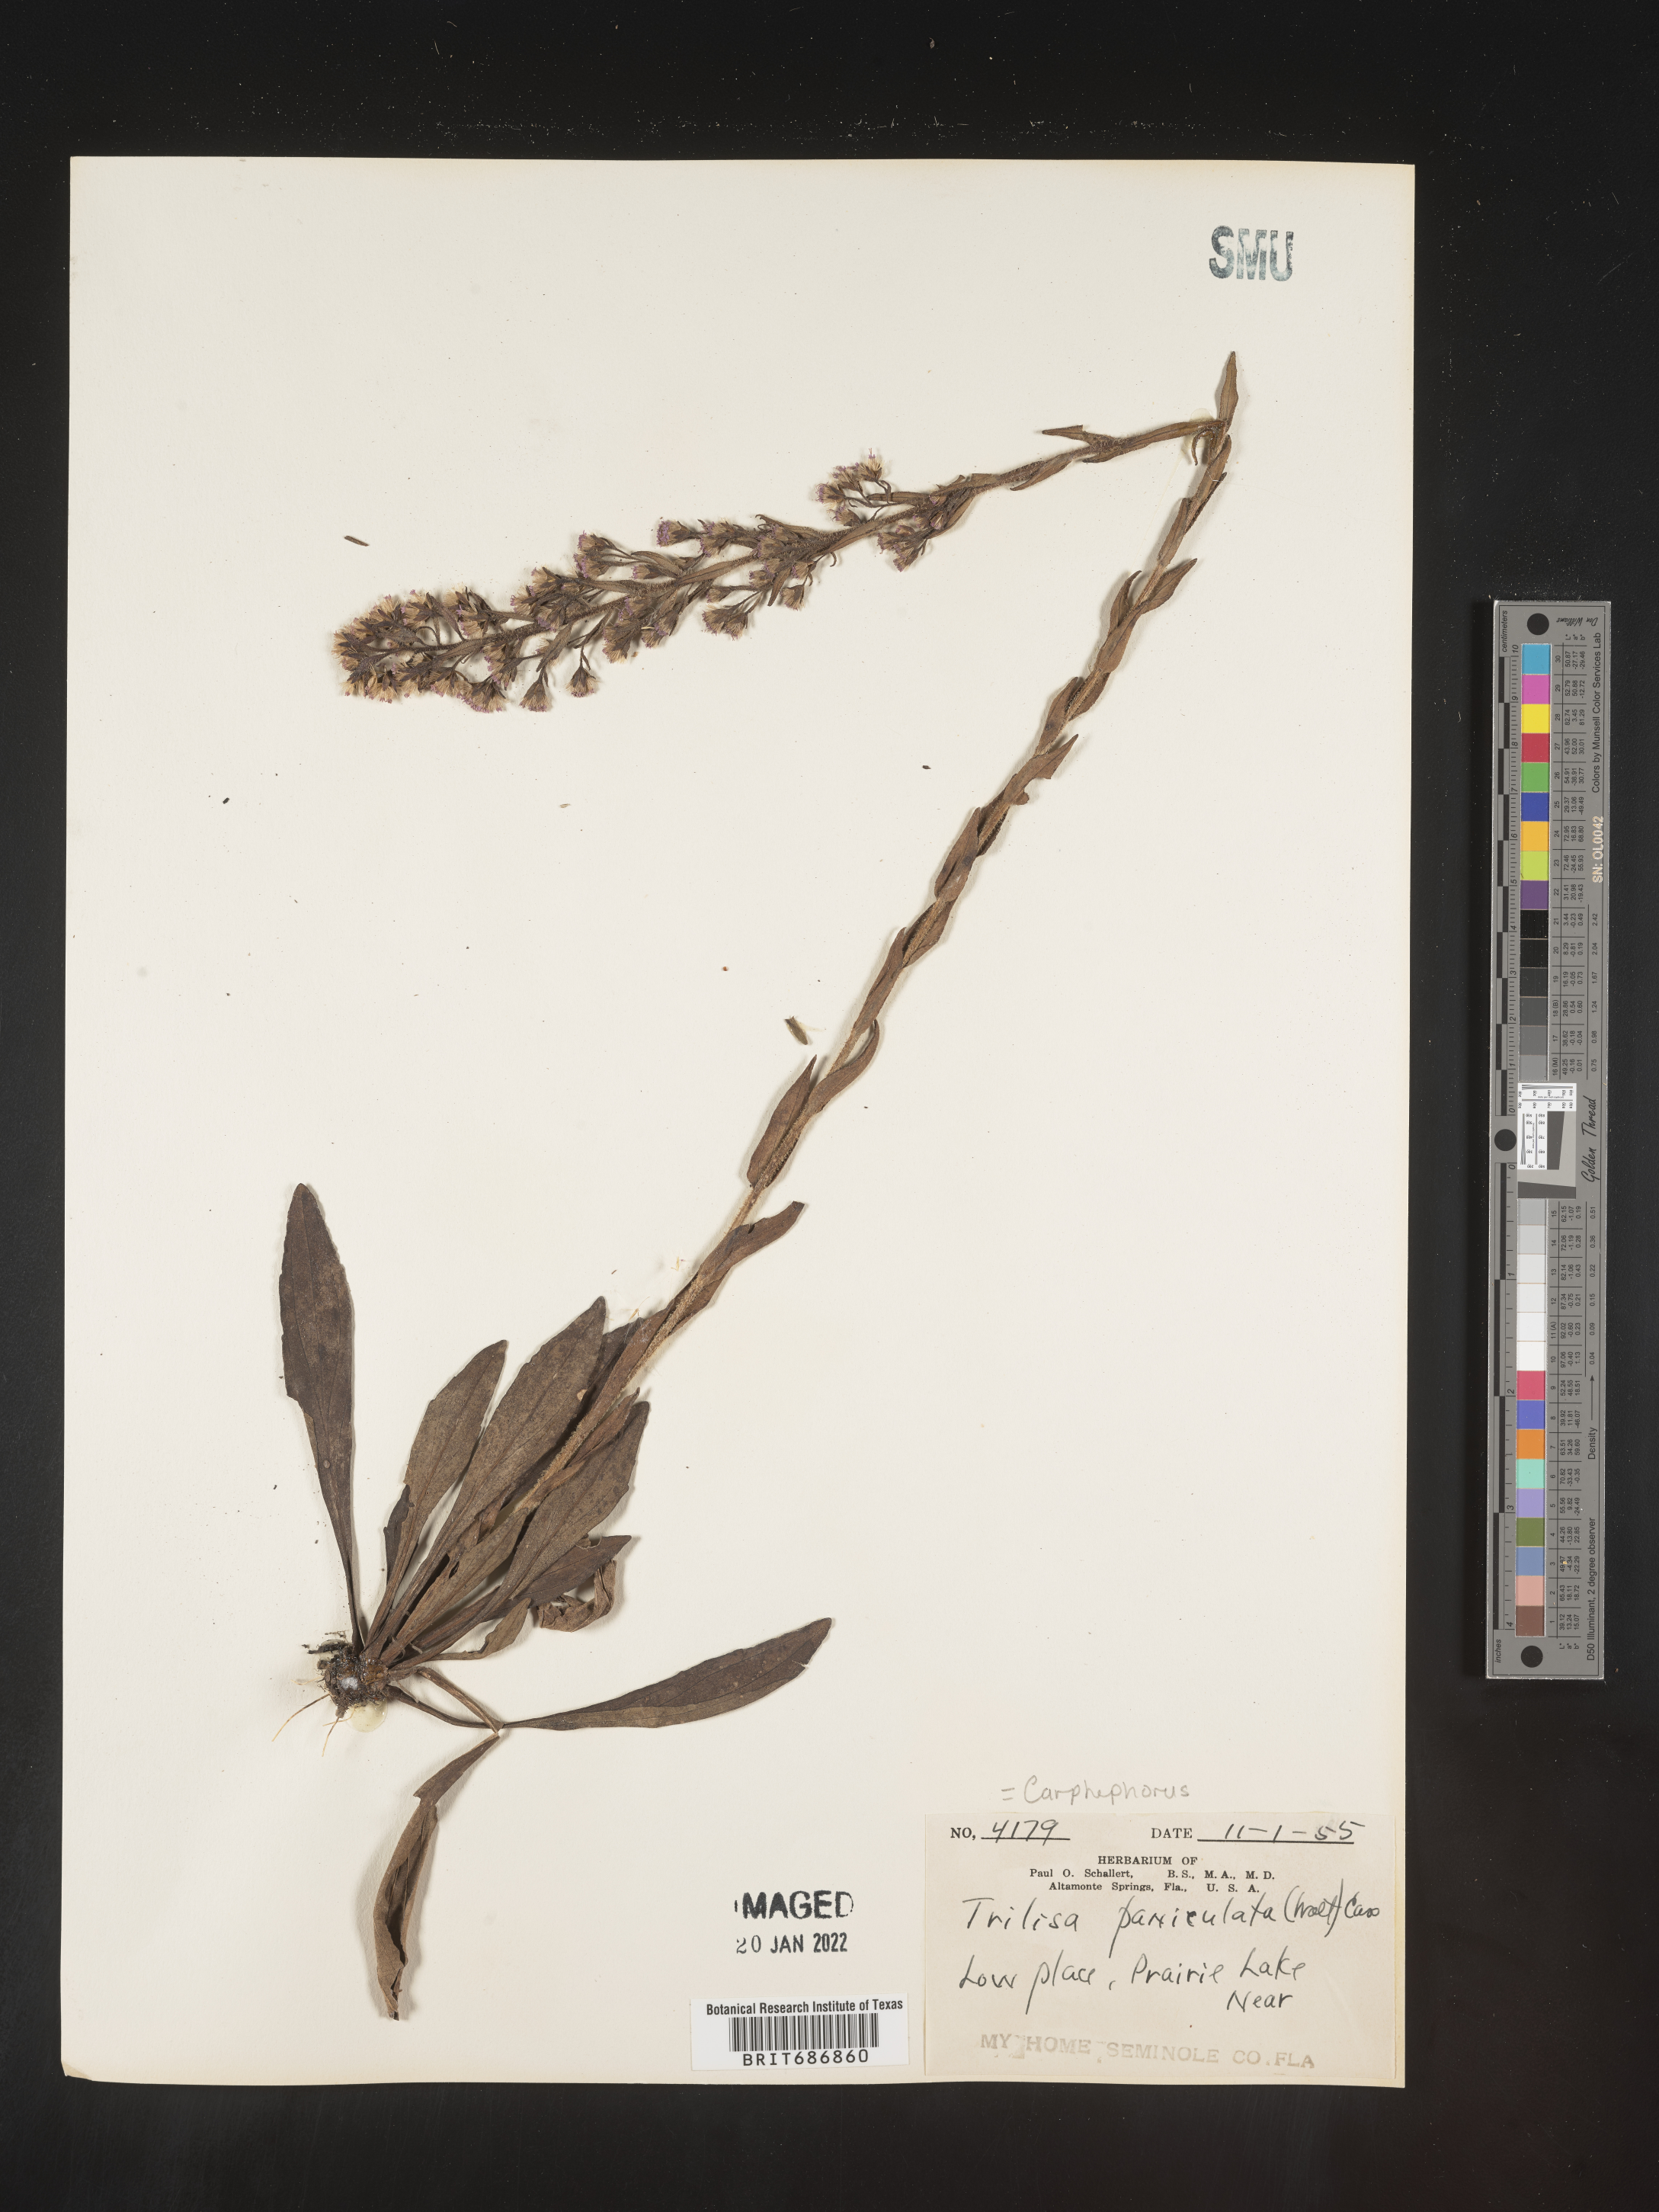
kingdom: Plantae
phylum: Tracheophyta
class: Magnoliopsida
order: Asterales
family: Asteraceae
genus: Carphephorus
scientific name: Carphephorus paniculatus
